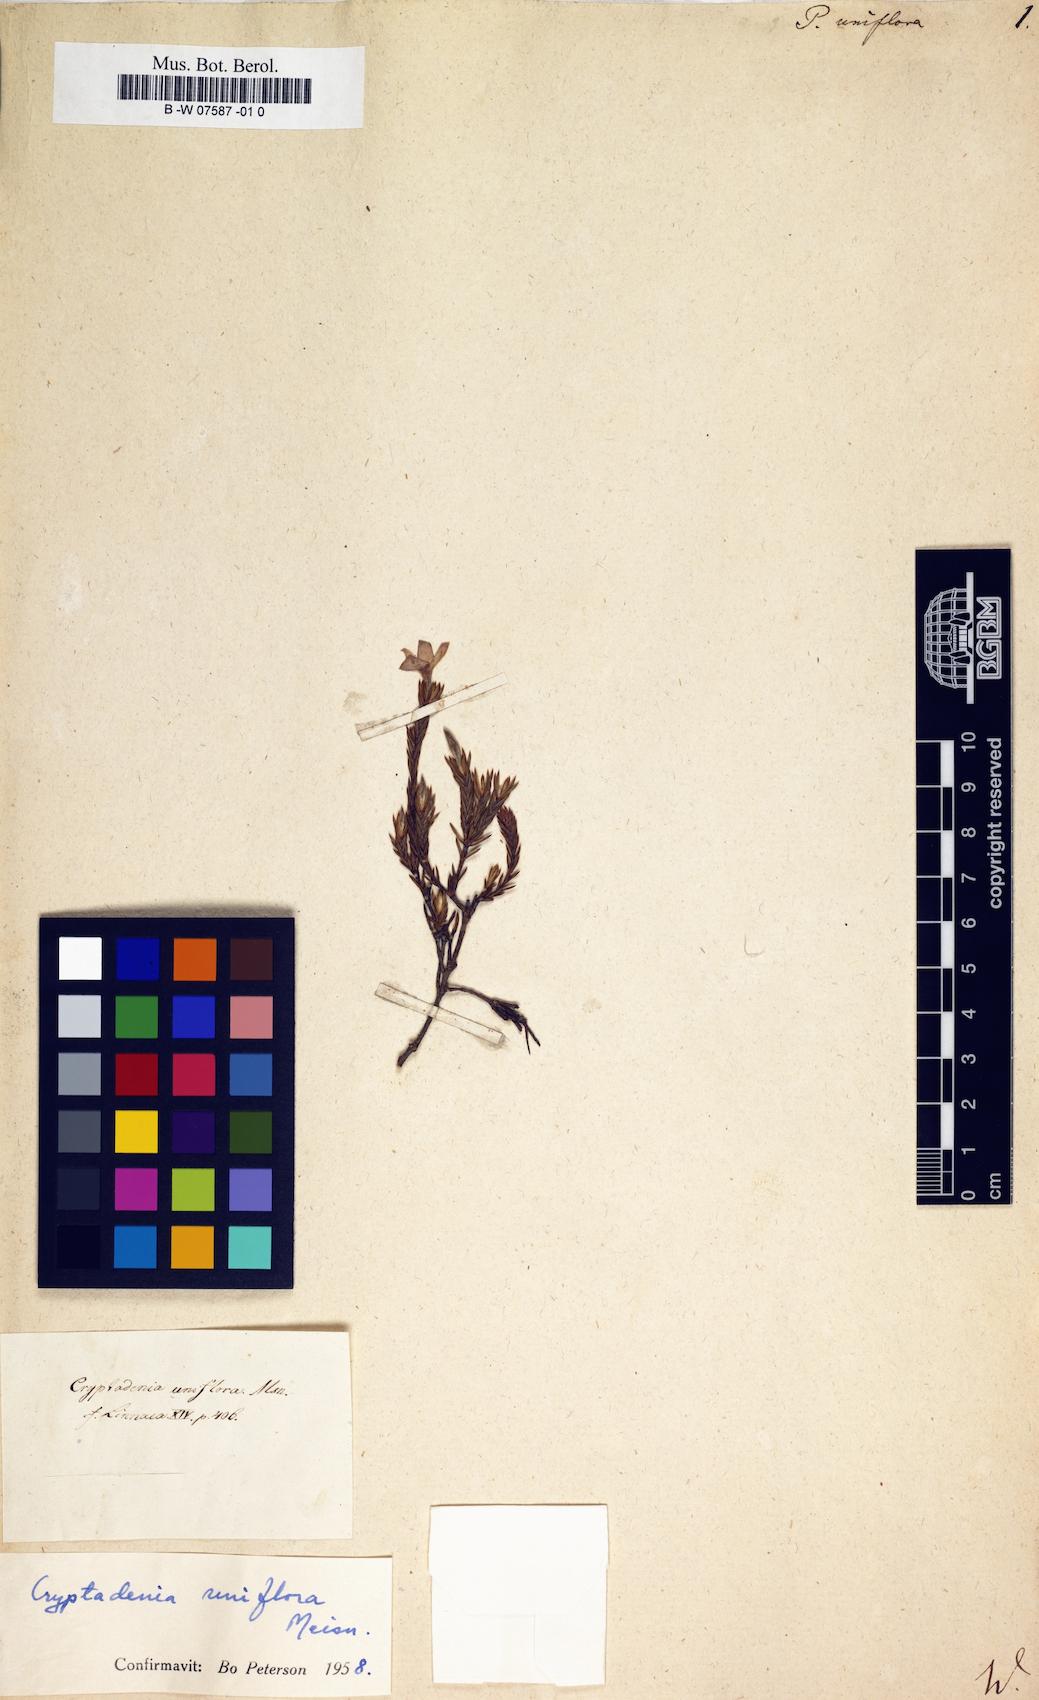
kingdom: Plantae
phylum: Tracheophyta
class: Magnoliopsida
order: Malvales
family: Thymelaeaceae
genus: Passerina
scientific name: Passerina uniflora
